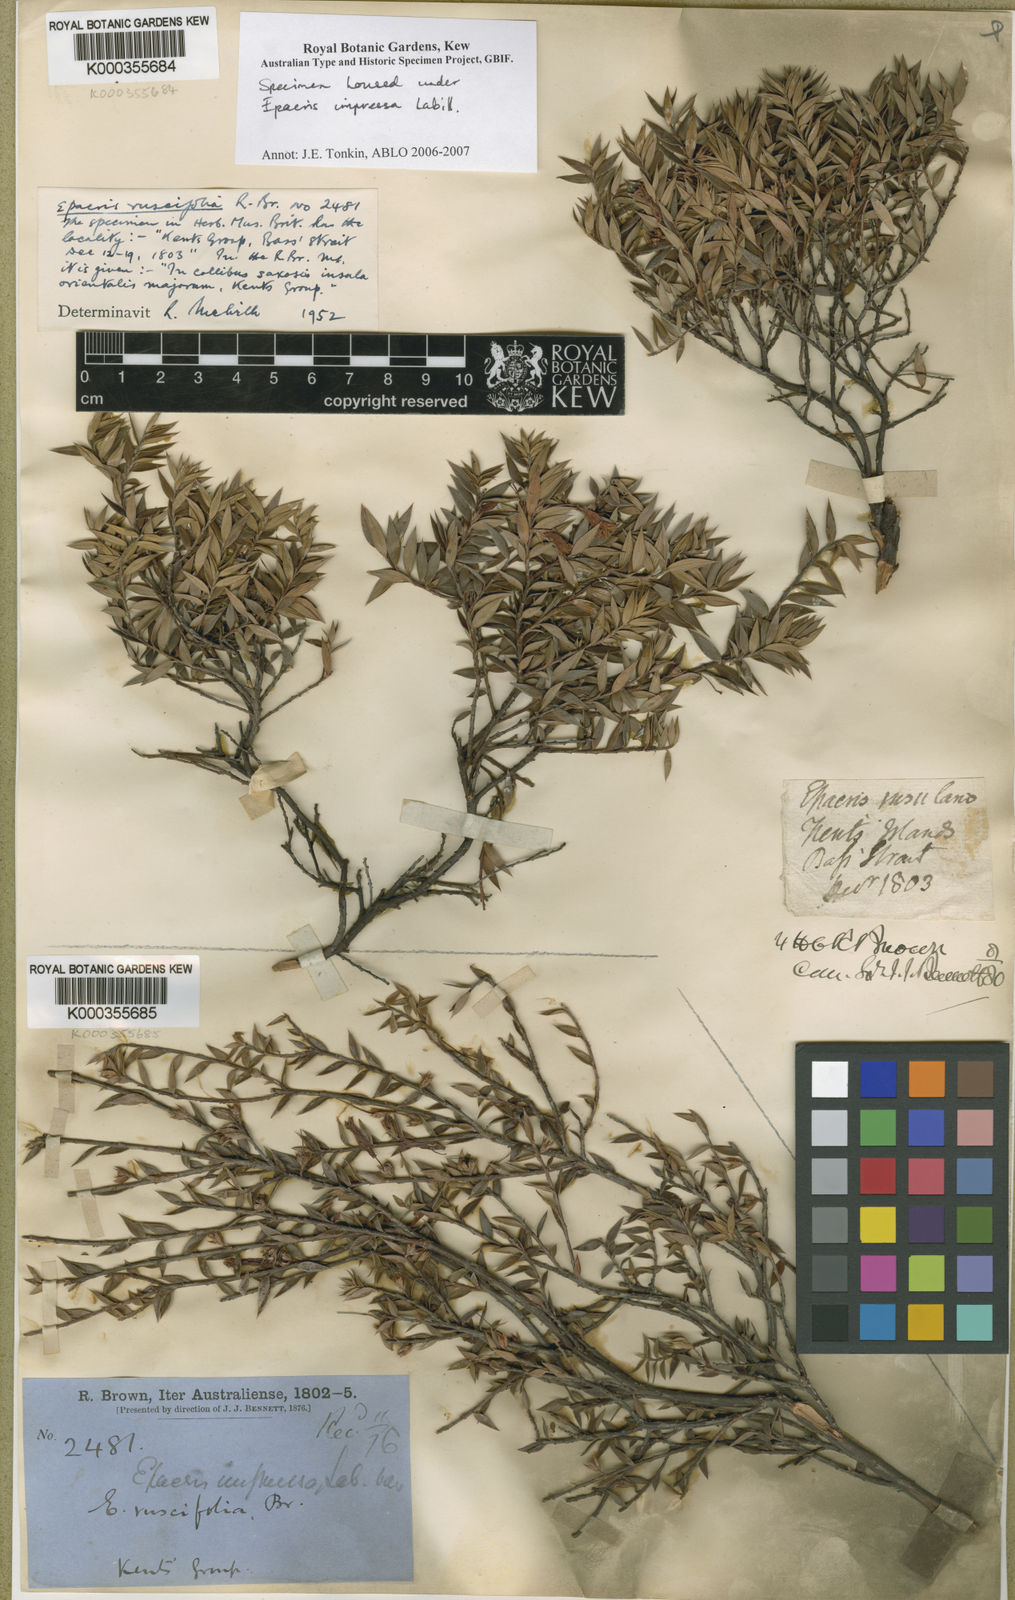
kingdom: Plantae
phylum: Tracheophyta
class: Magnoliopsida
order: Ericales
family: Ericaceae
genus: Epacris
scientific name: Epacris impressa
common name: Common-heath
